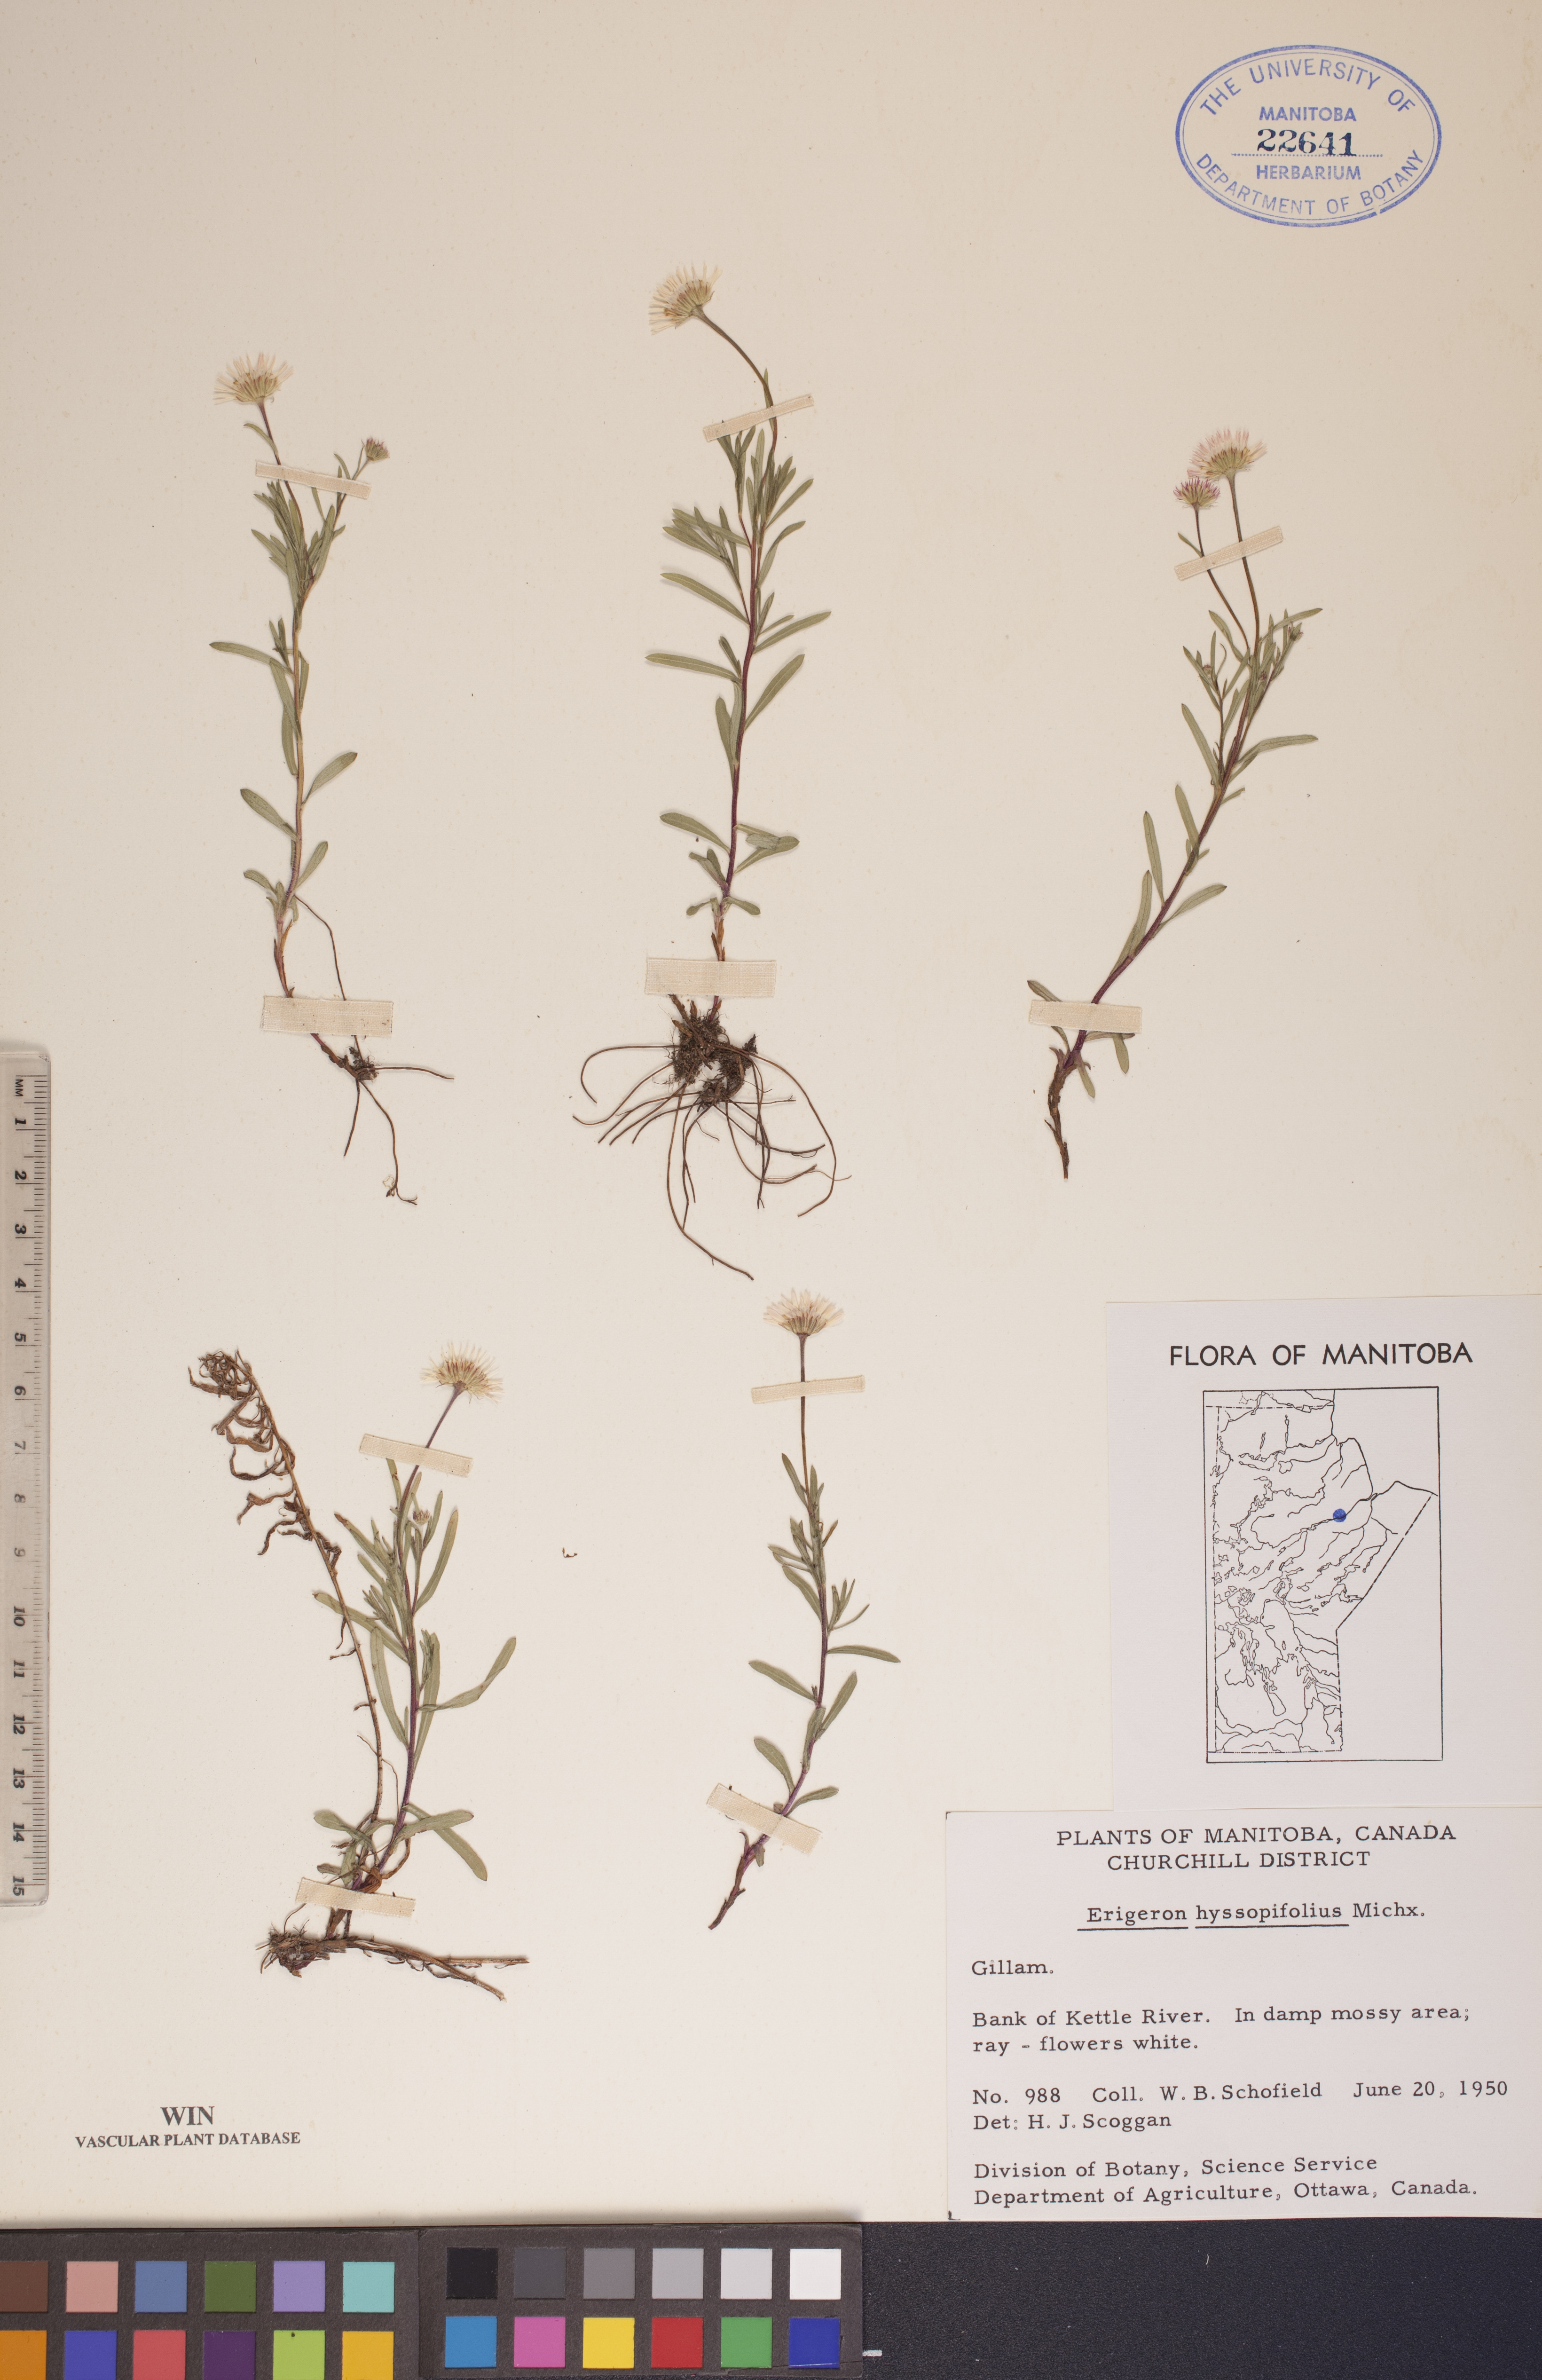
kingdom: Plantae
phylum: Tracheophyta
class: Magnoliopsida
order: Asterales
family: Asteraceae
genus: Erigeron
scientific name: Erigeron hyssopifolius
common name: Daisy fleabane
